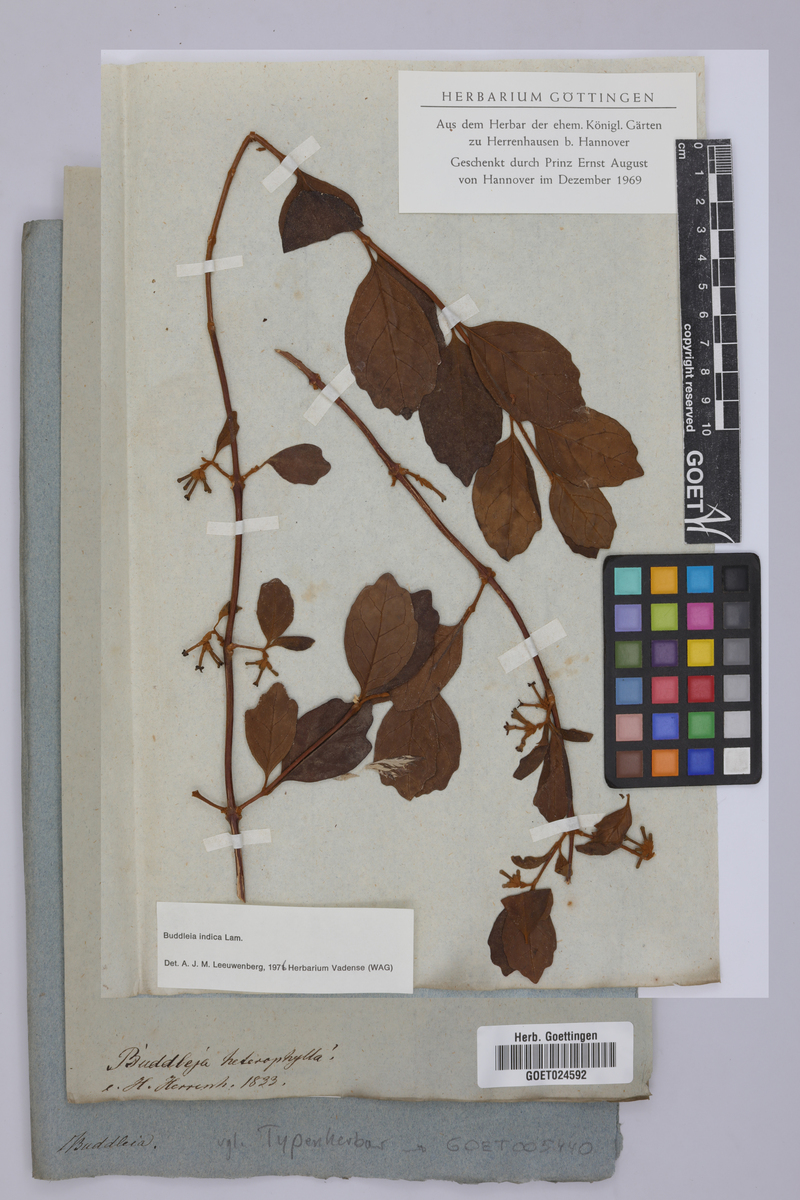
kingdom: Plantae
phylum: Tracheophyta
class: Magnoliopsida
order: Lamiales
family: Scrophulariaceae
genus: Buddleja
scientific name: Buddleja indica
